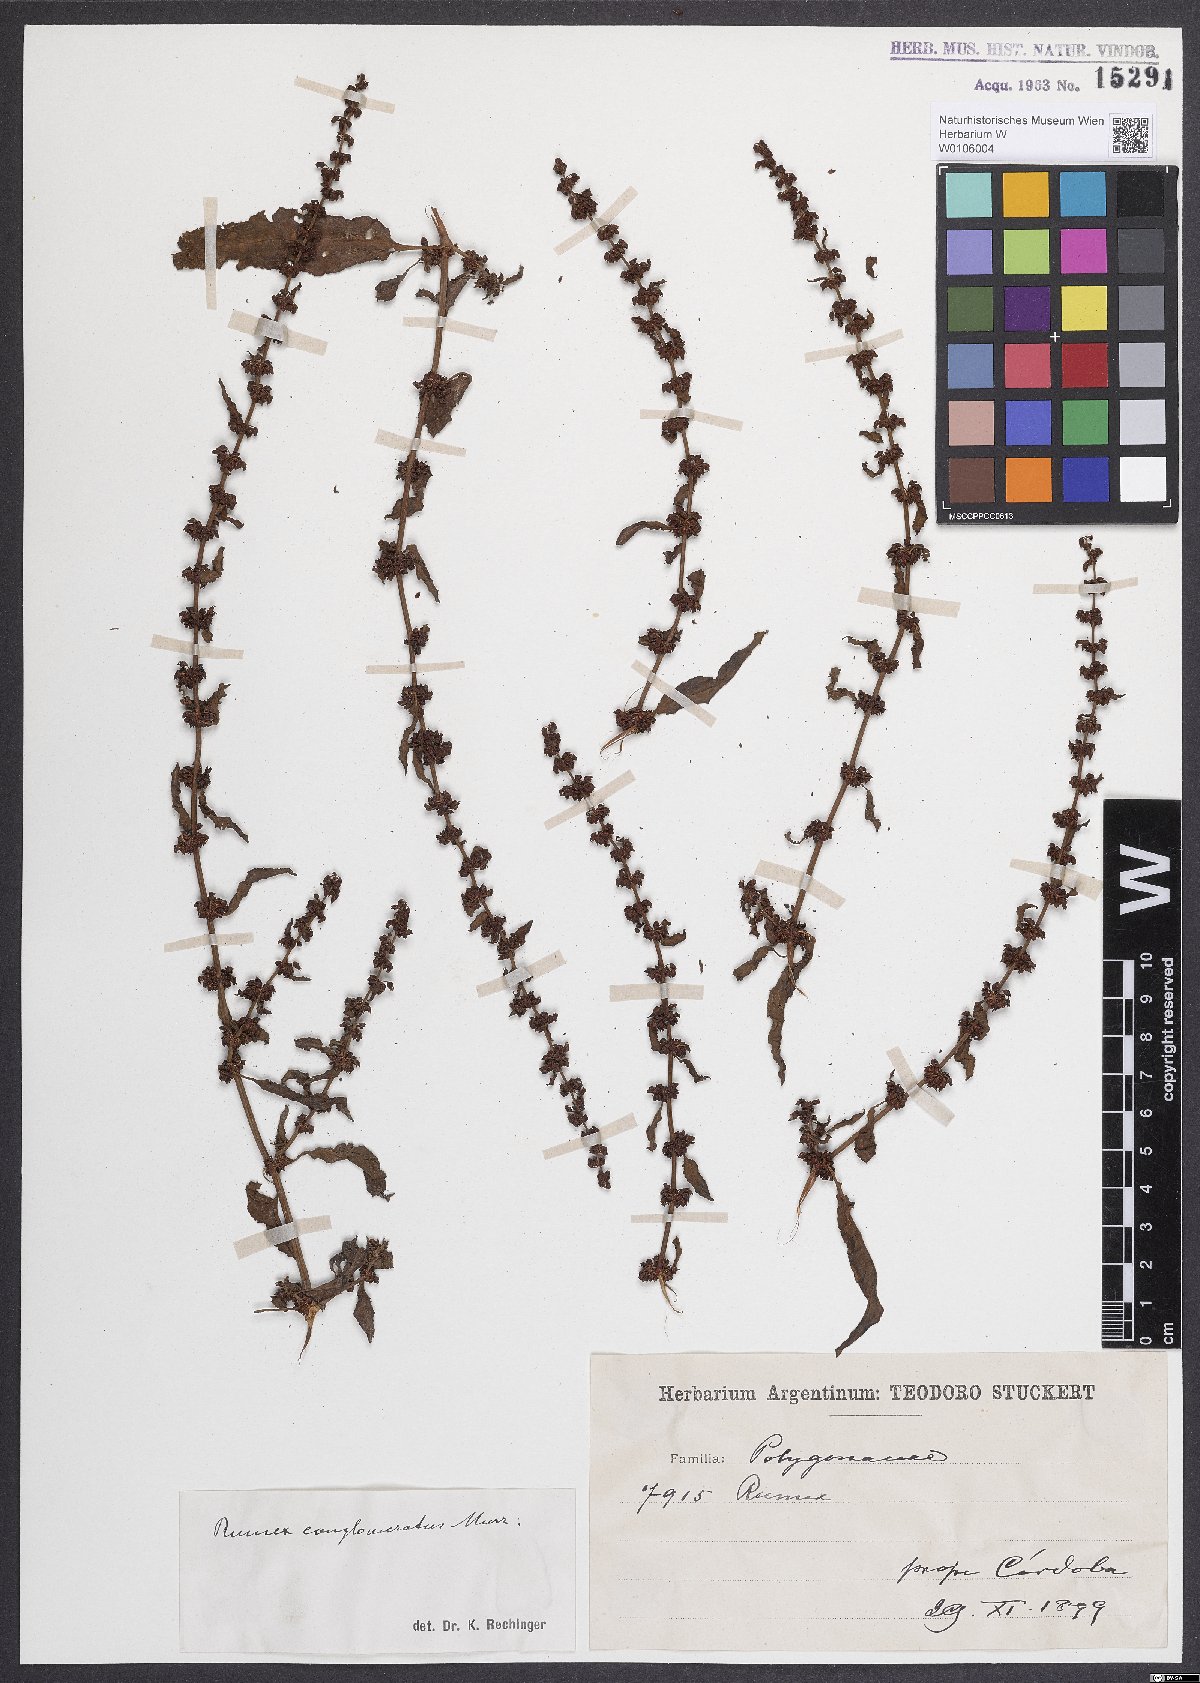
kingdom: Plantae
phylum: Tracheophyta
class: Magnoliopsida
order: Caryophyllales
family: Polygonaceae
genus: Rumex
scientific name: Rumex conglomeratus
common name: Clustered dock
